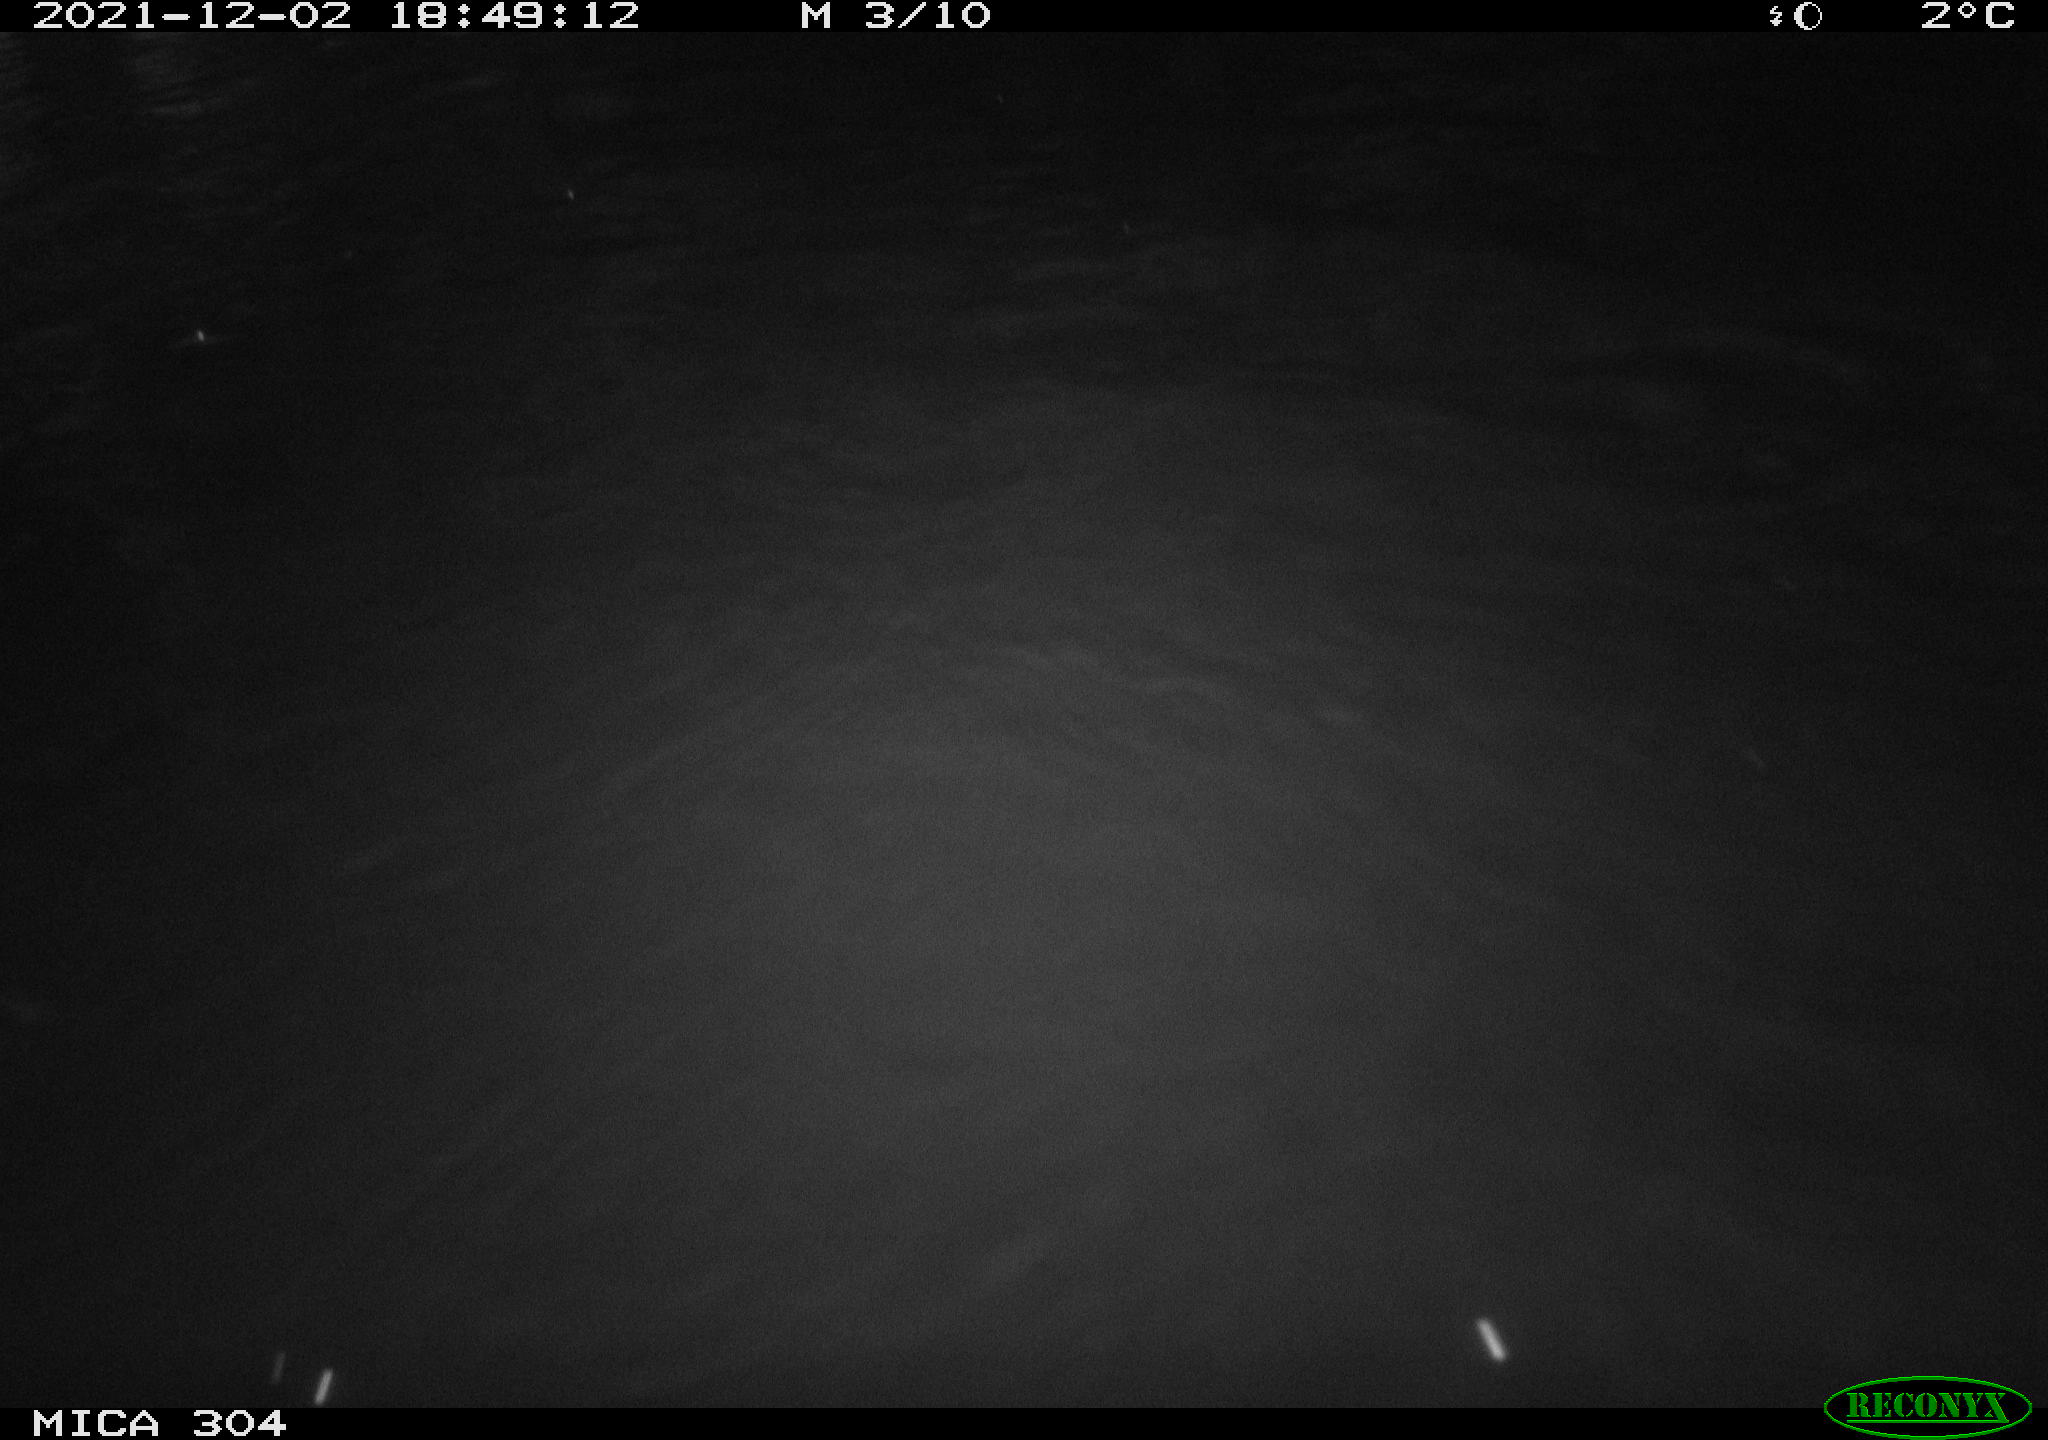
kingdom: Animalia
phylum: Chordata
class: Mammalia
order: Rodentia
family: Muridae
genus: Rattus
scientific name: Rattus norvegicus
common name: Brown rat
